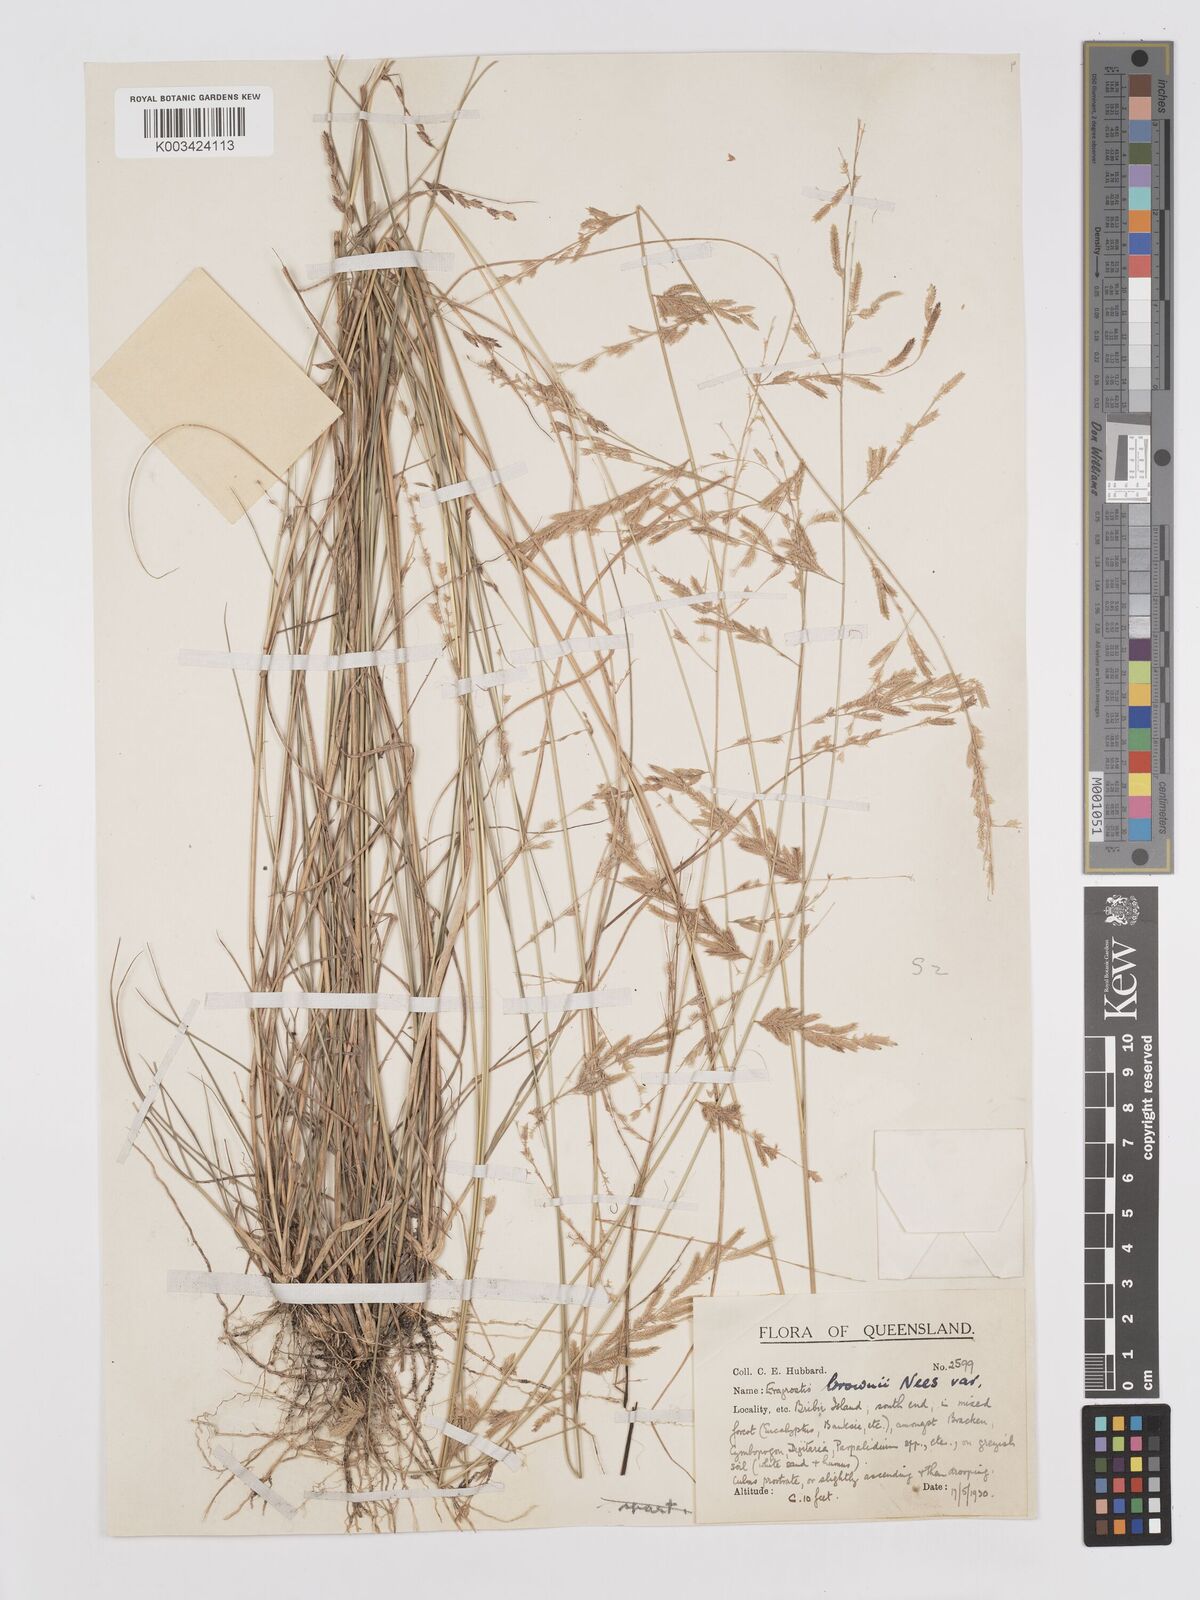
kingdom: Plantae
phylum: Tracheophyta
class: Liliopsida
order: Poales
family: Poaceae
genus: Eragrostis
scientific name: Eragrostis brownii
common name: Lovegrass
